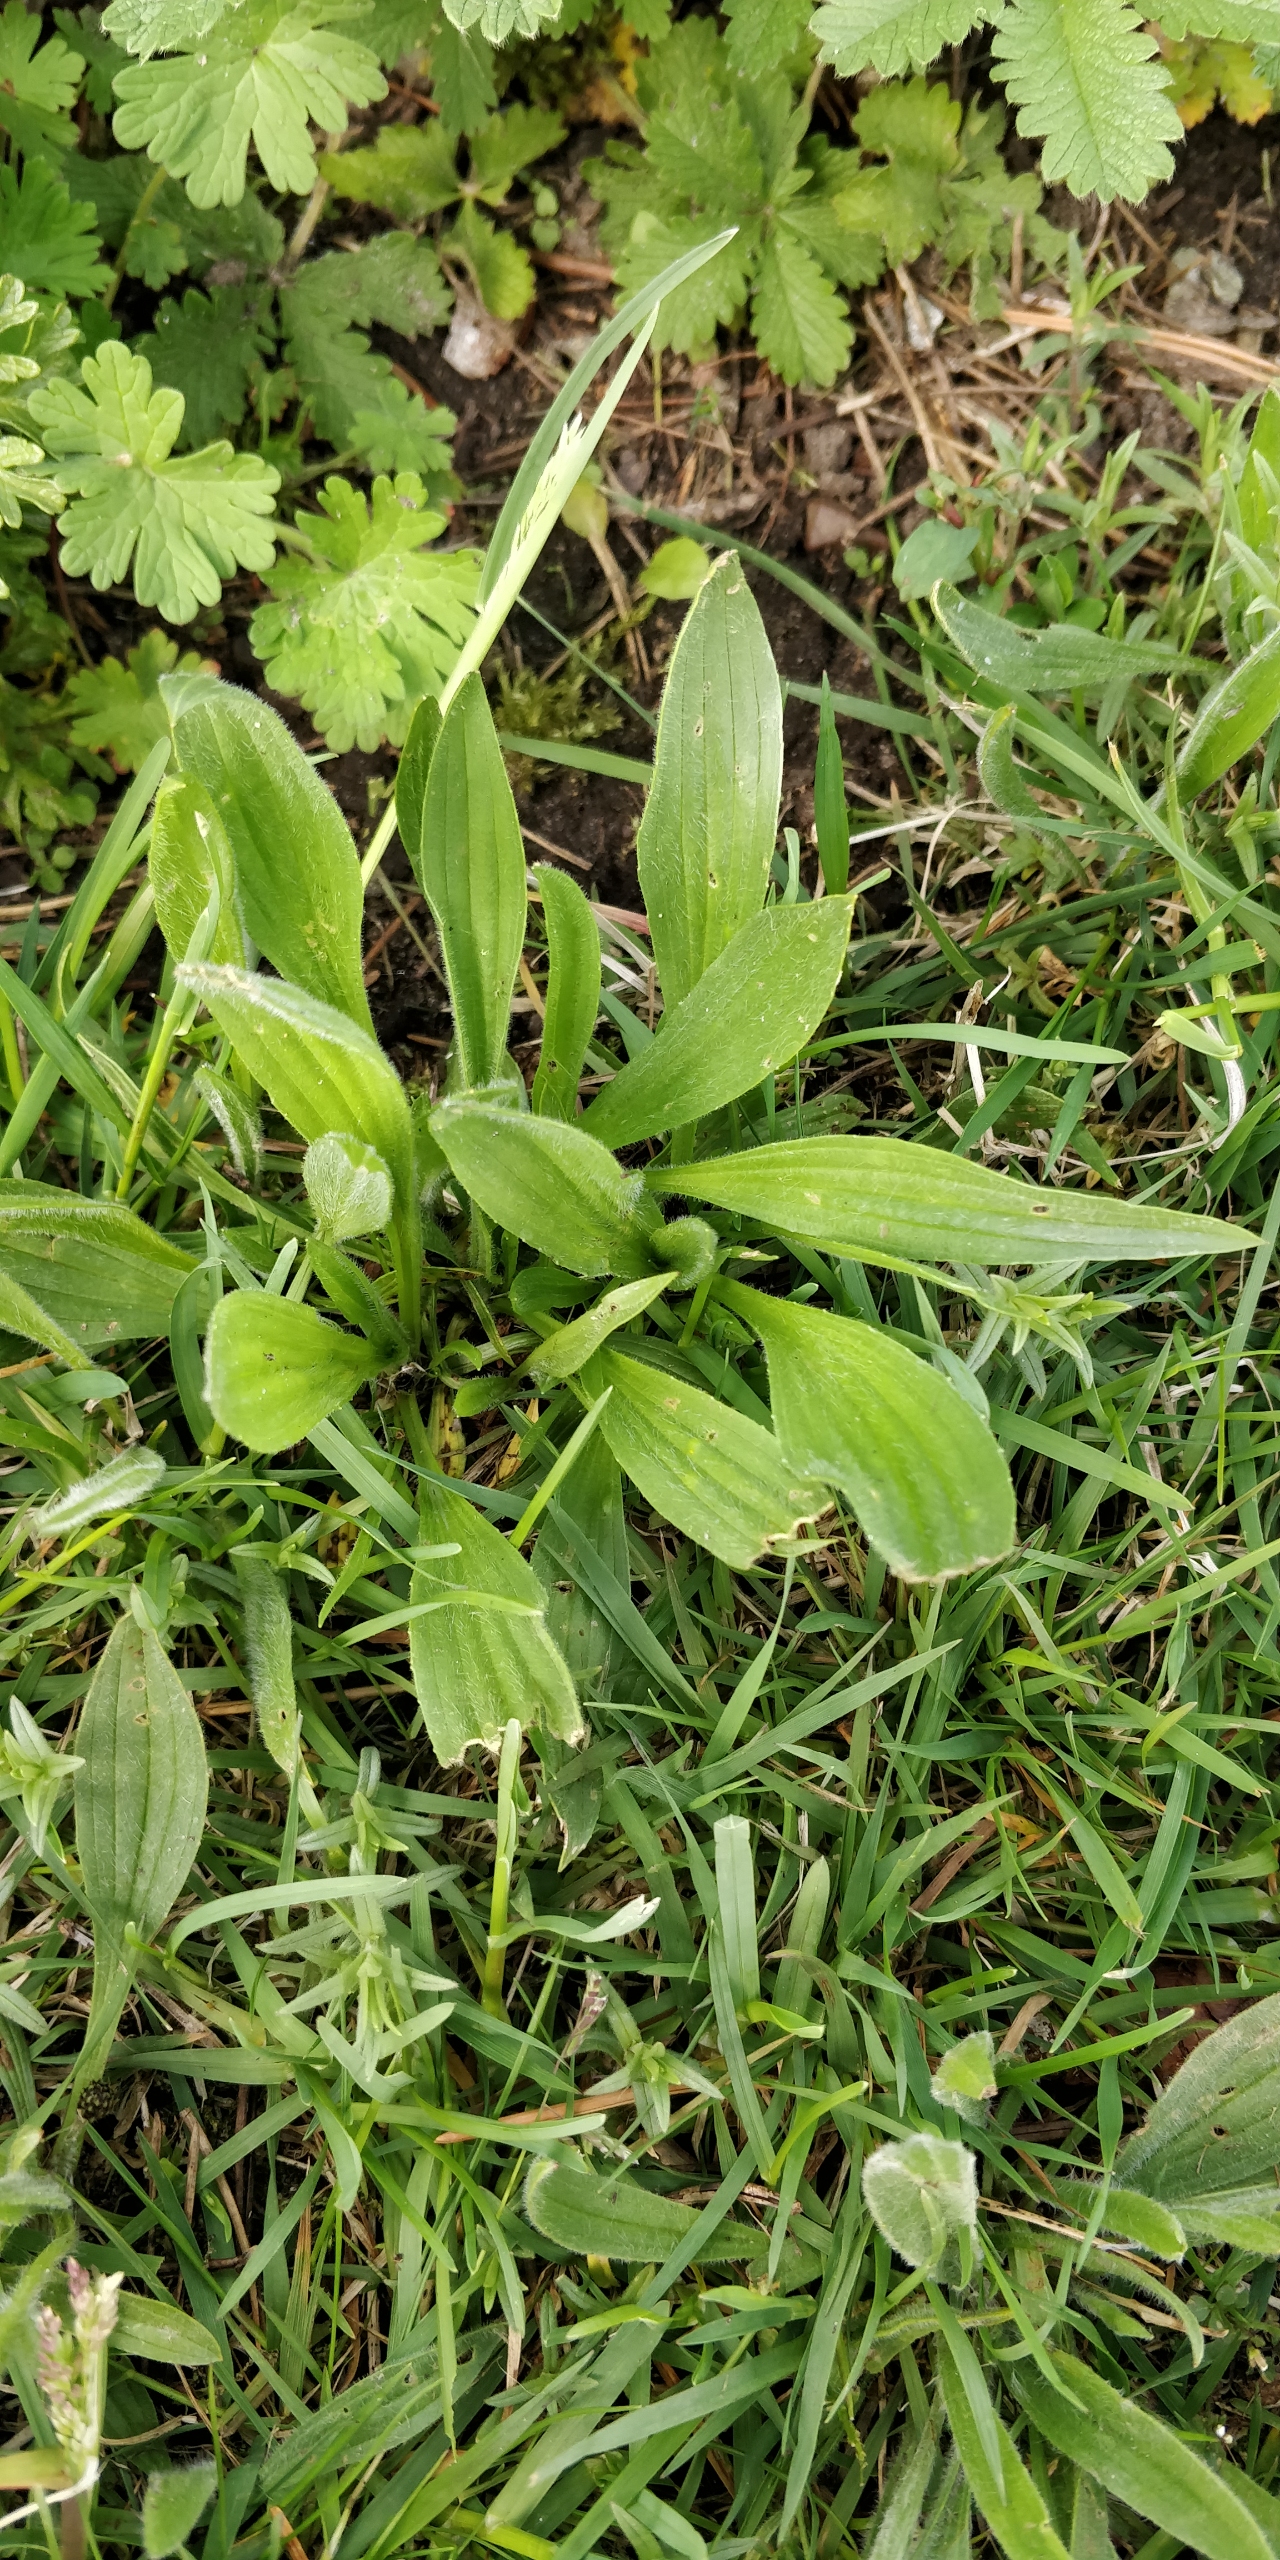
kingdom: Plantae
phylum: Tracheophyta
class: Magnoliopsida
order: Lamiales
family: Plantaginaceae
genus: Plantago
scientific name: Plantago lanceolata
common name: Lancet-vejbred
